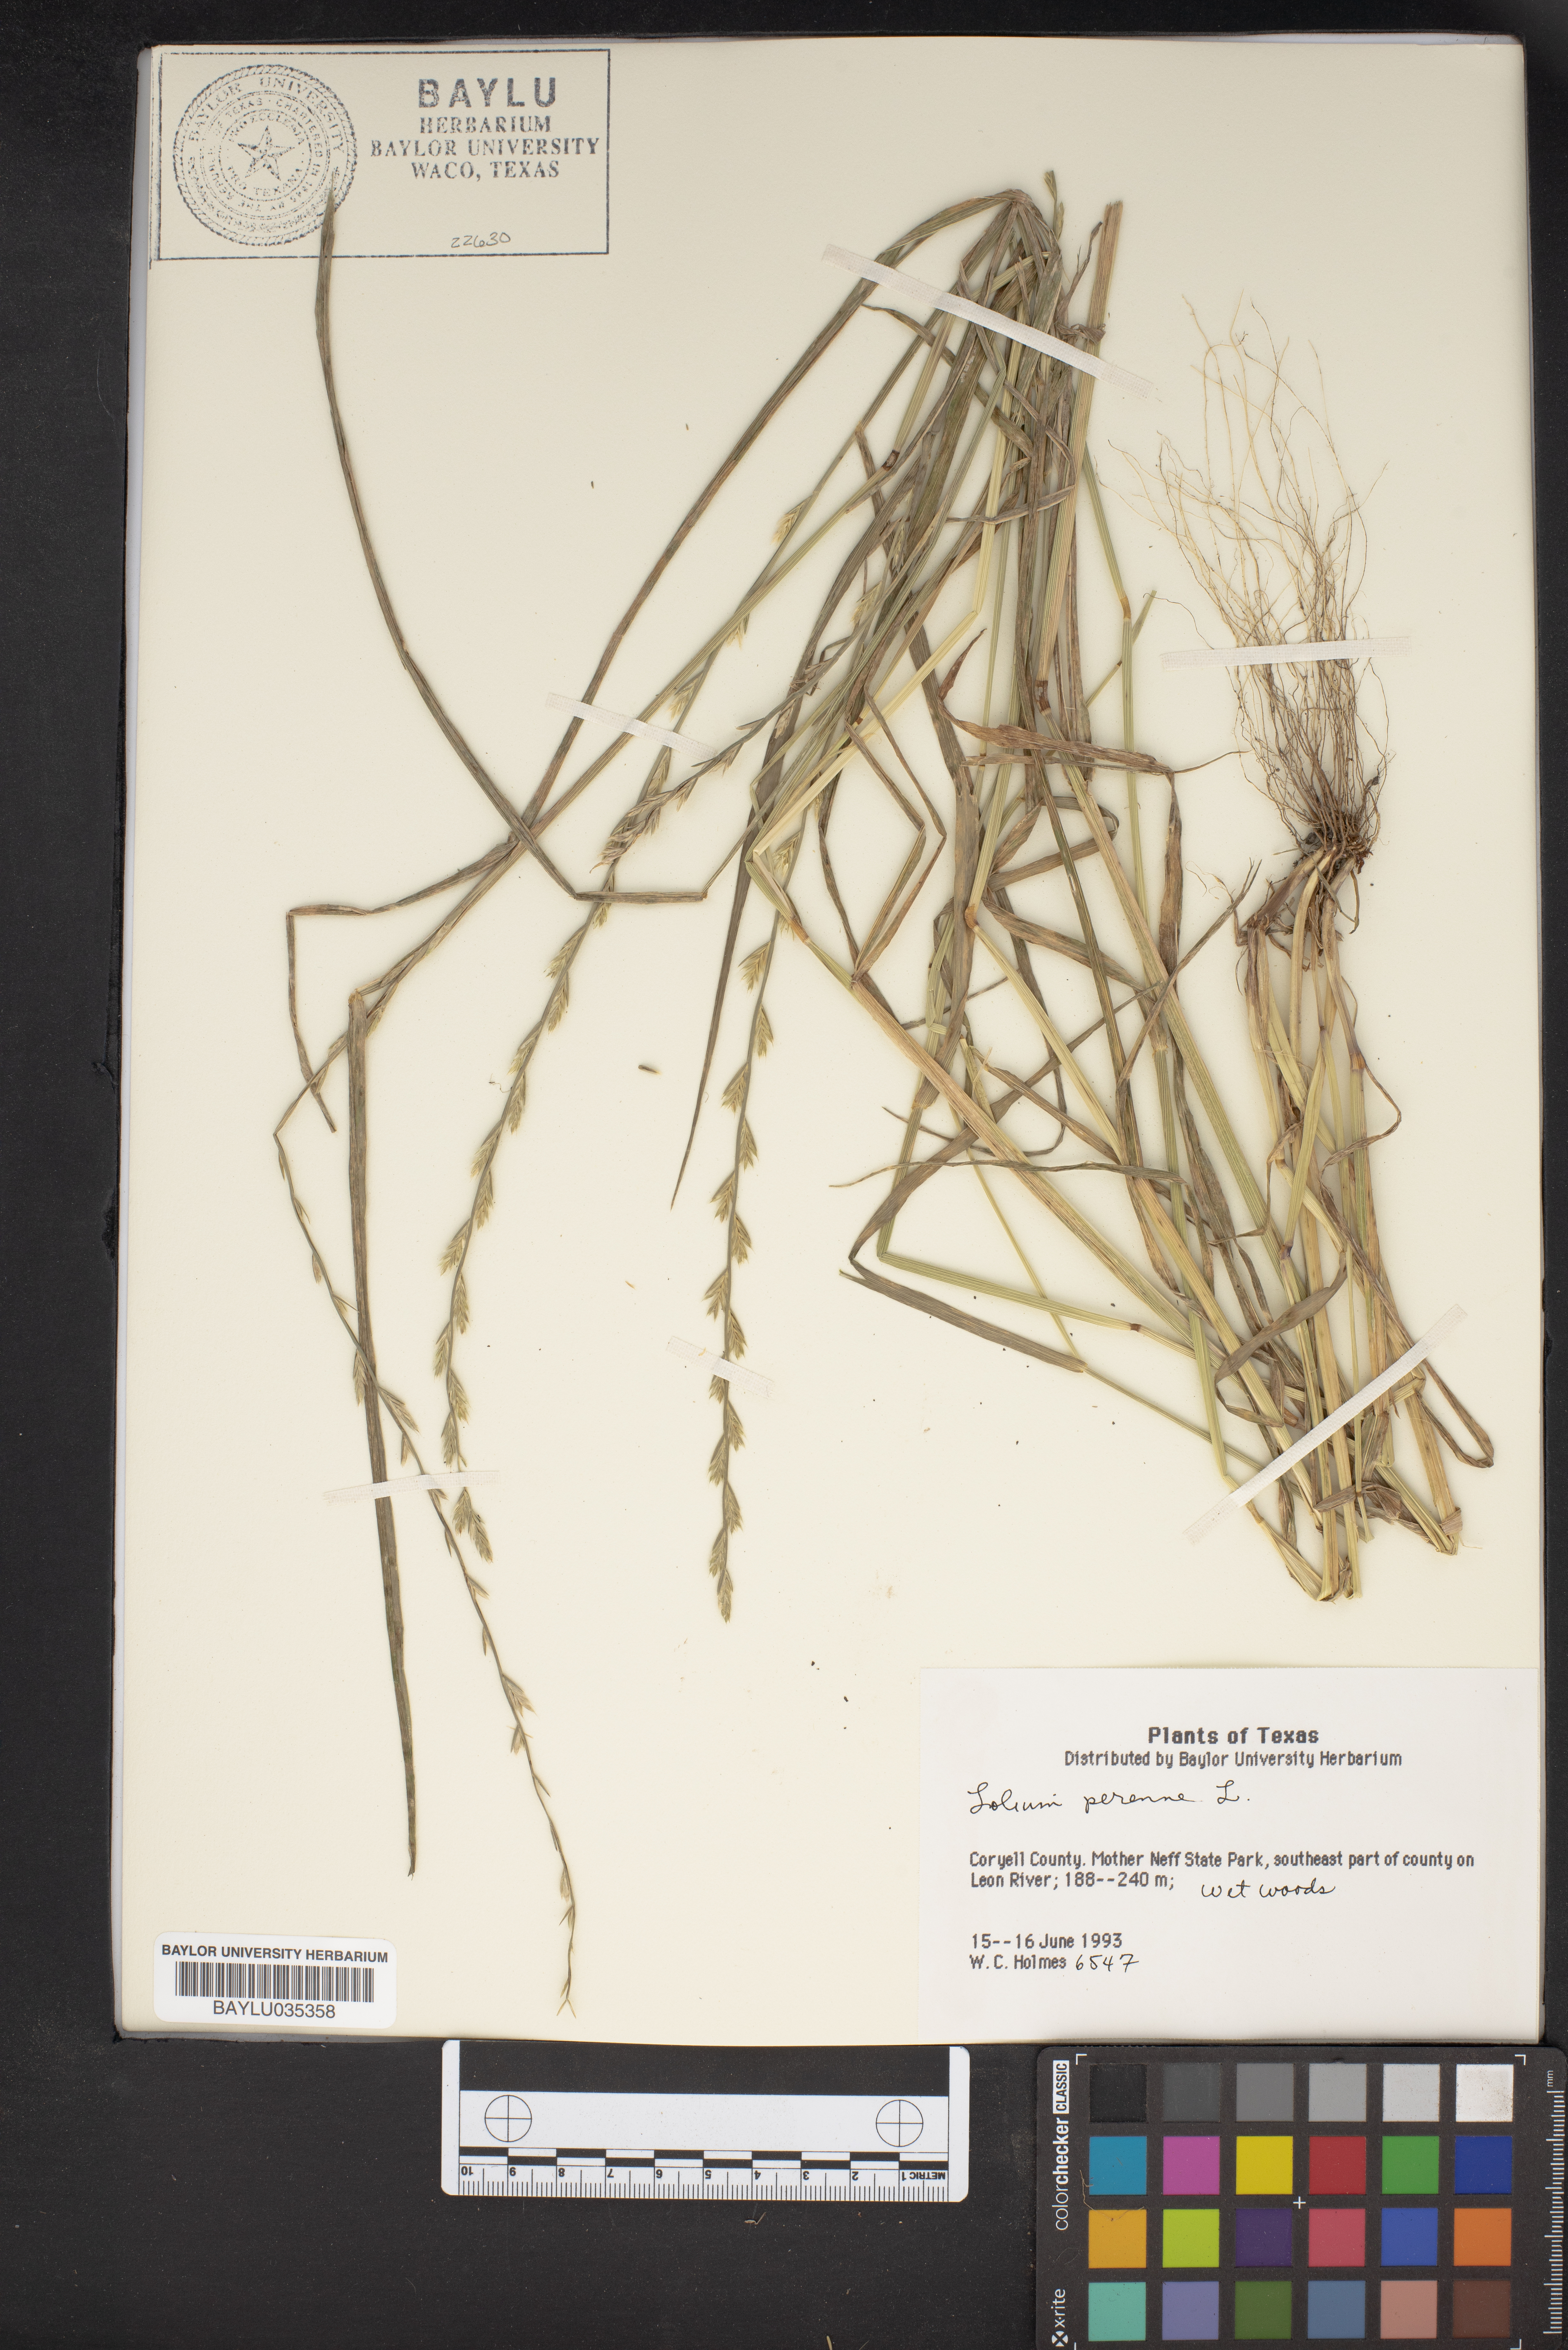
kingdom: Plantae
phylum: Tracheophyta
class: Liliopsida
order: Poales
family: Poaceae
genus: Lolium
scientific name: Lolium perenne
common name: Perennial ryegrass
